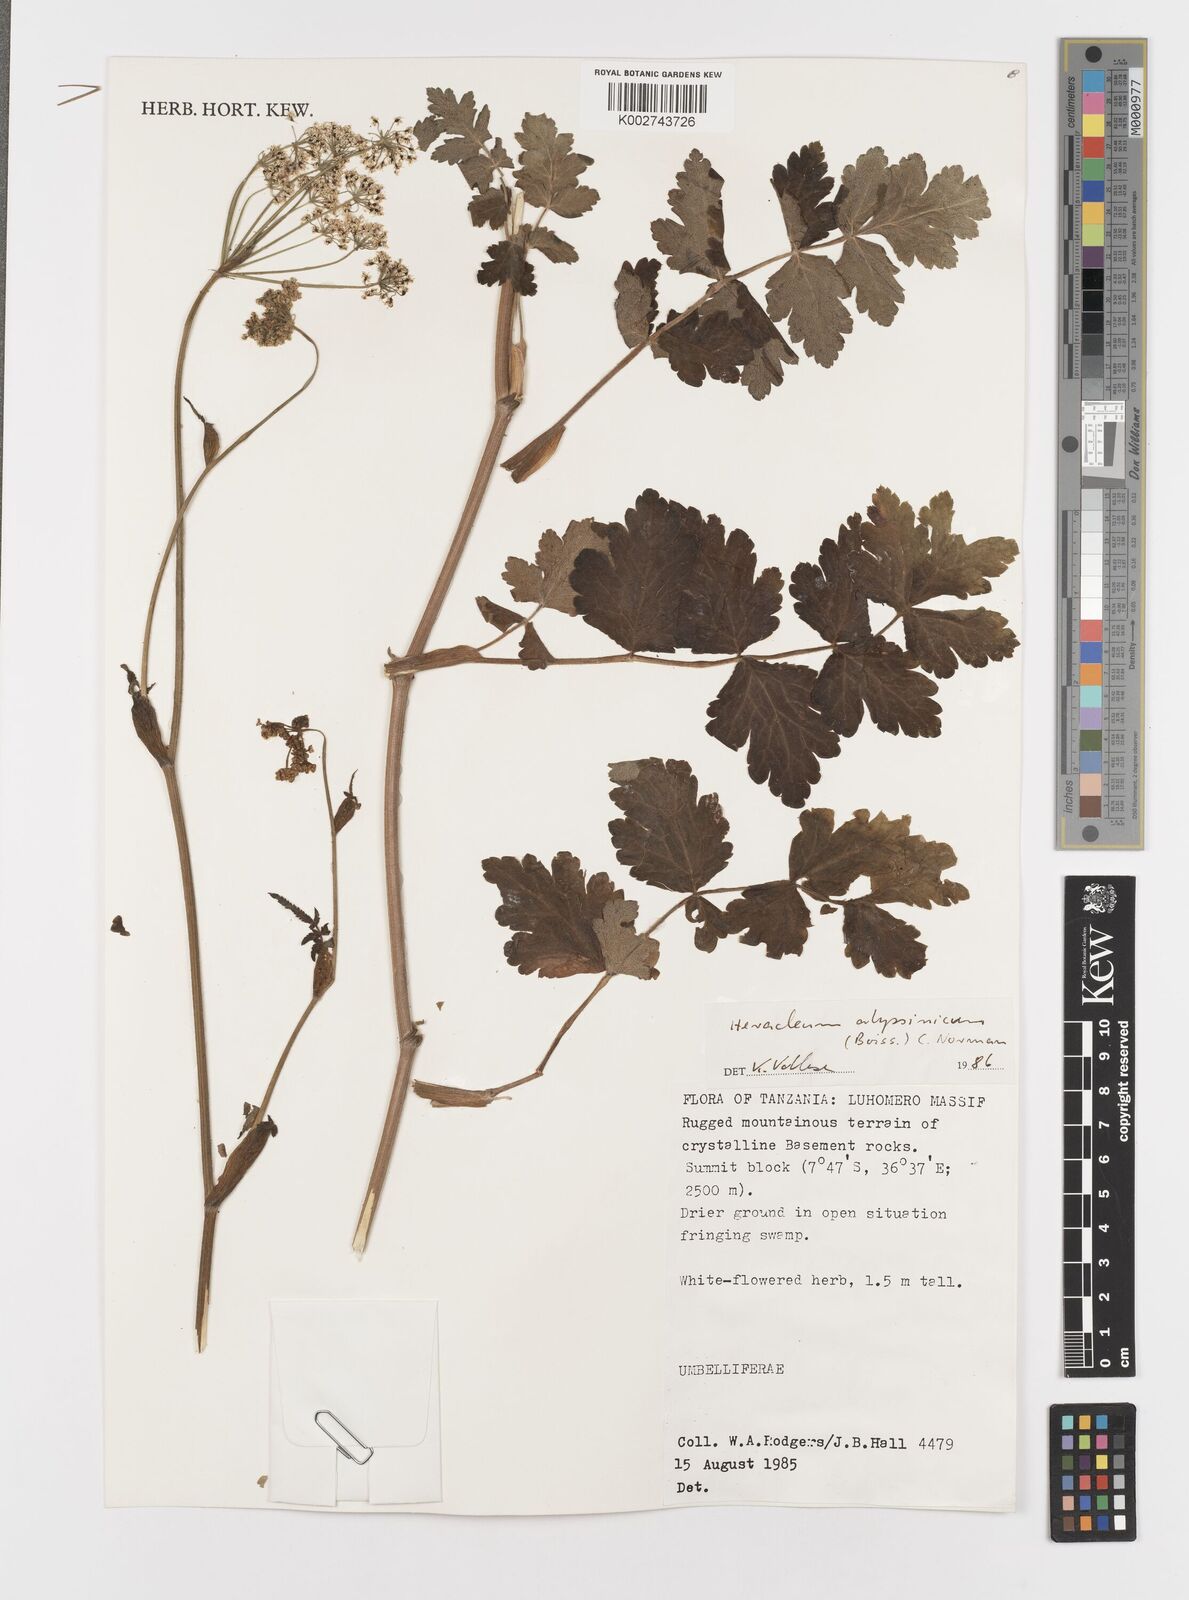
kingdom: Plantae
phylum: Tracheophyta
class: Magnoliopsida
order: Apiales
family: Apiaceae
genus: Heracleum
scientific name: Heracleum abyssinicum
